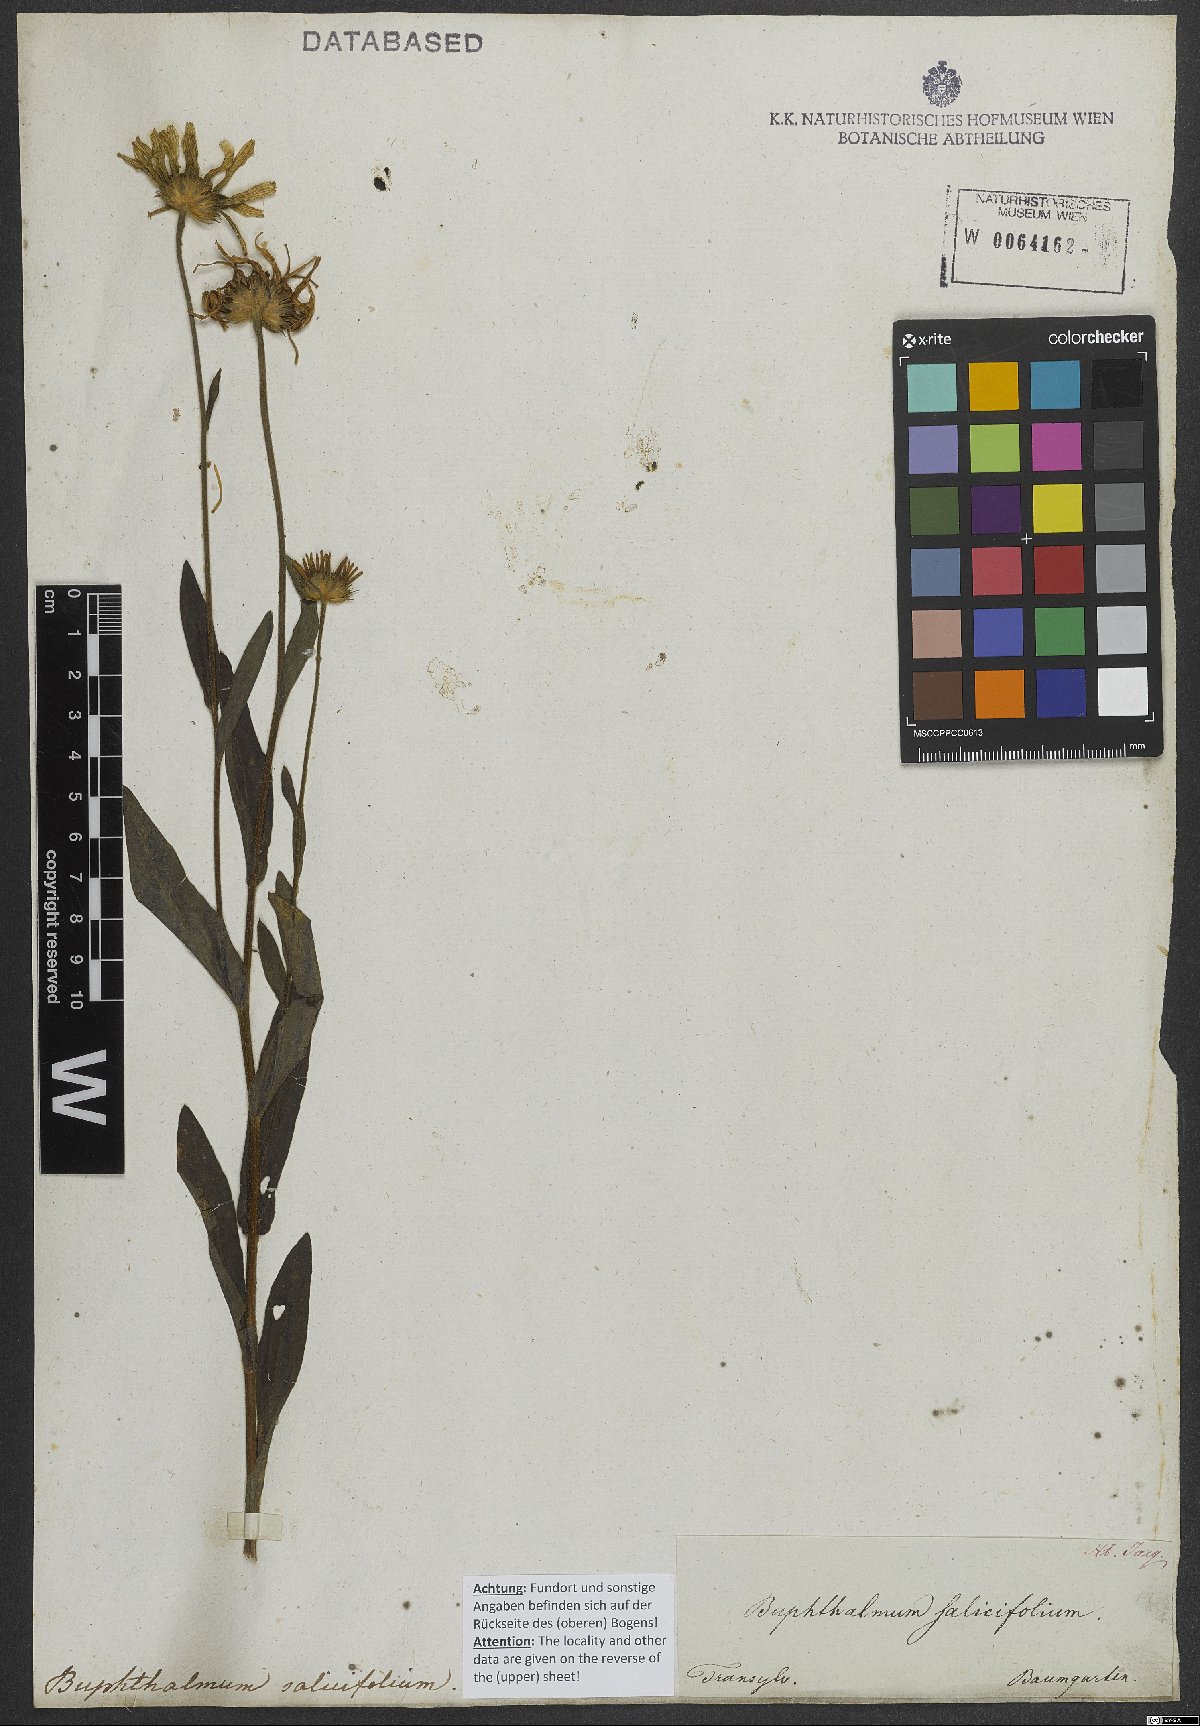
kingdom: Plantae
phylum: Tracheophyta
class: Magnoliopsida
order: Asterales
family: Asteraceae
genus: Buphthalmum
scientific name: Buphthalmum salicifolium
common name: Willow-leaved yellow-oxeye
